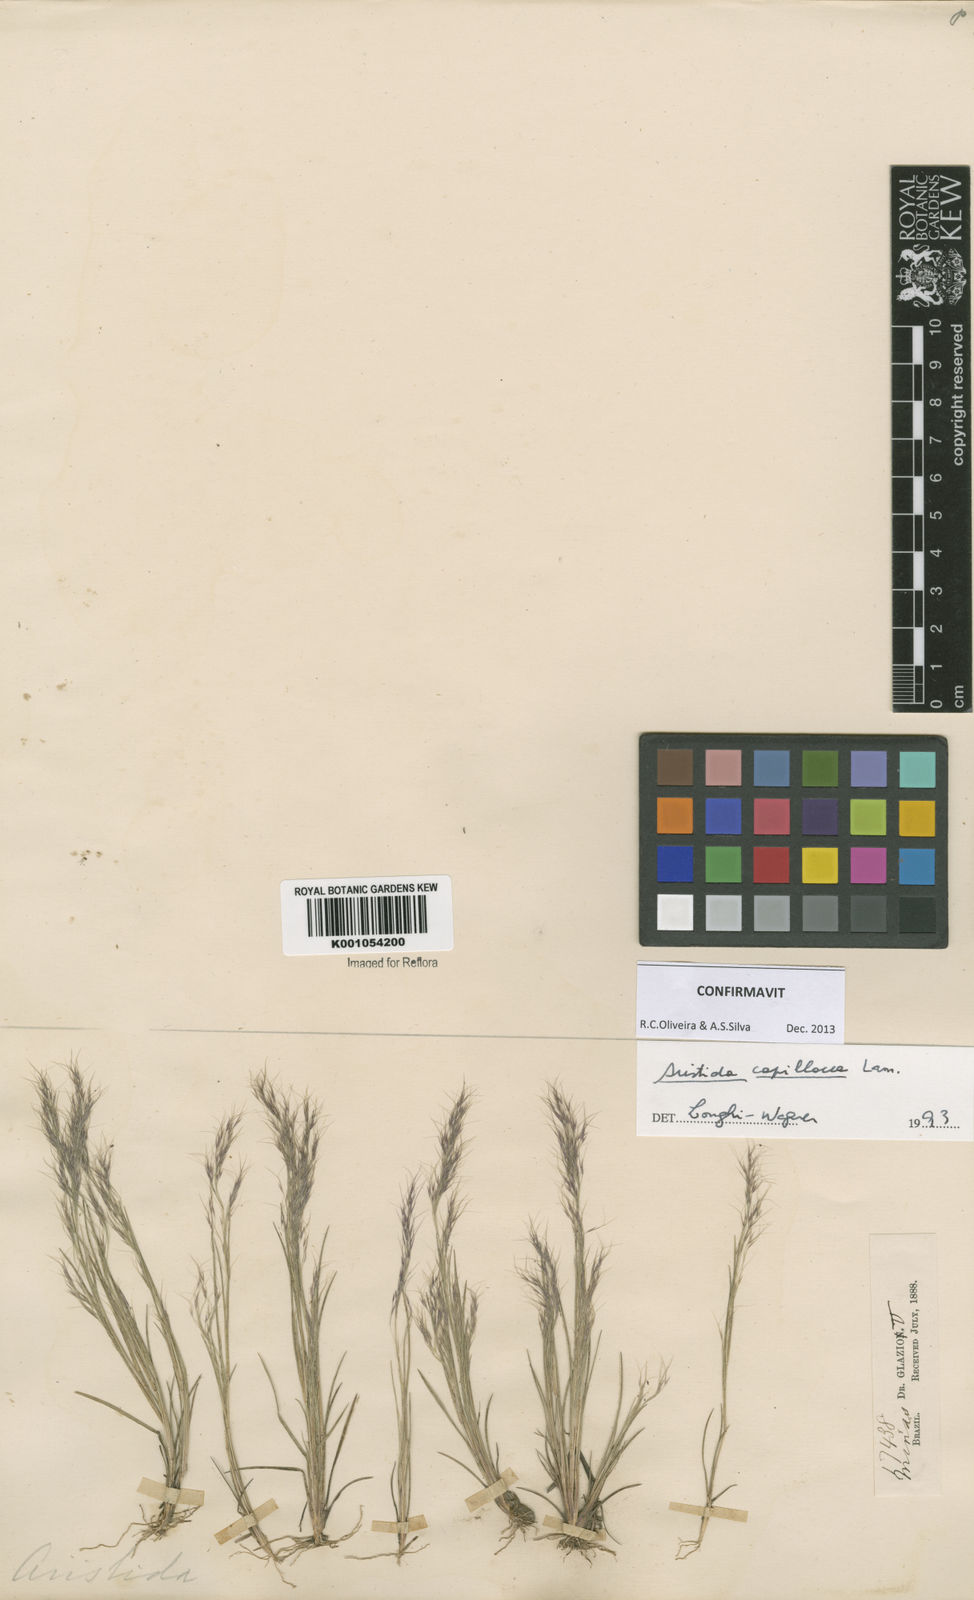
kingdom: Plantae
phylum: Tracheophyta
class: Liliopsida
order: Poales
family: Poaceae
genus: Aristida
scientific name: Aristida capillacea
